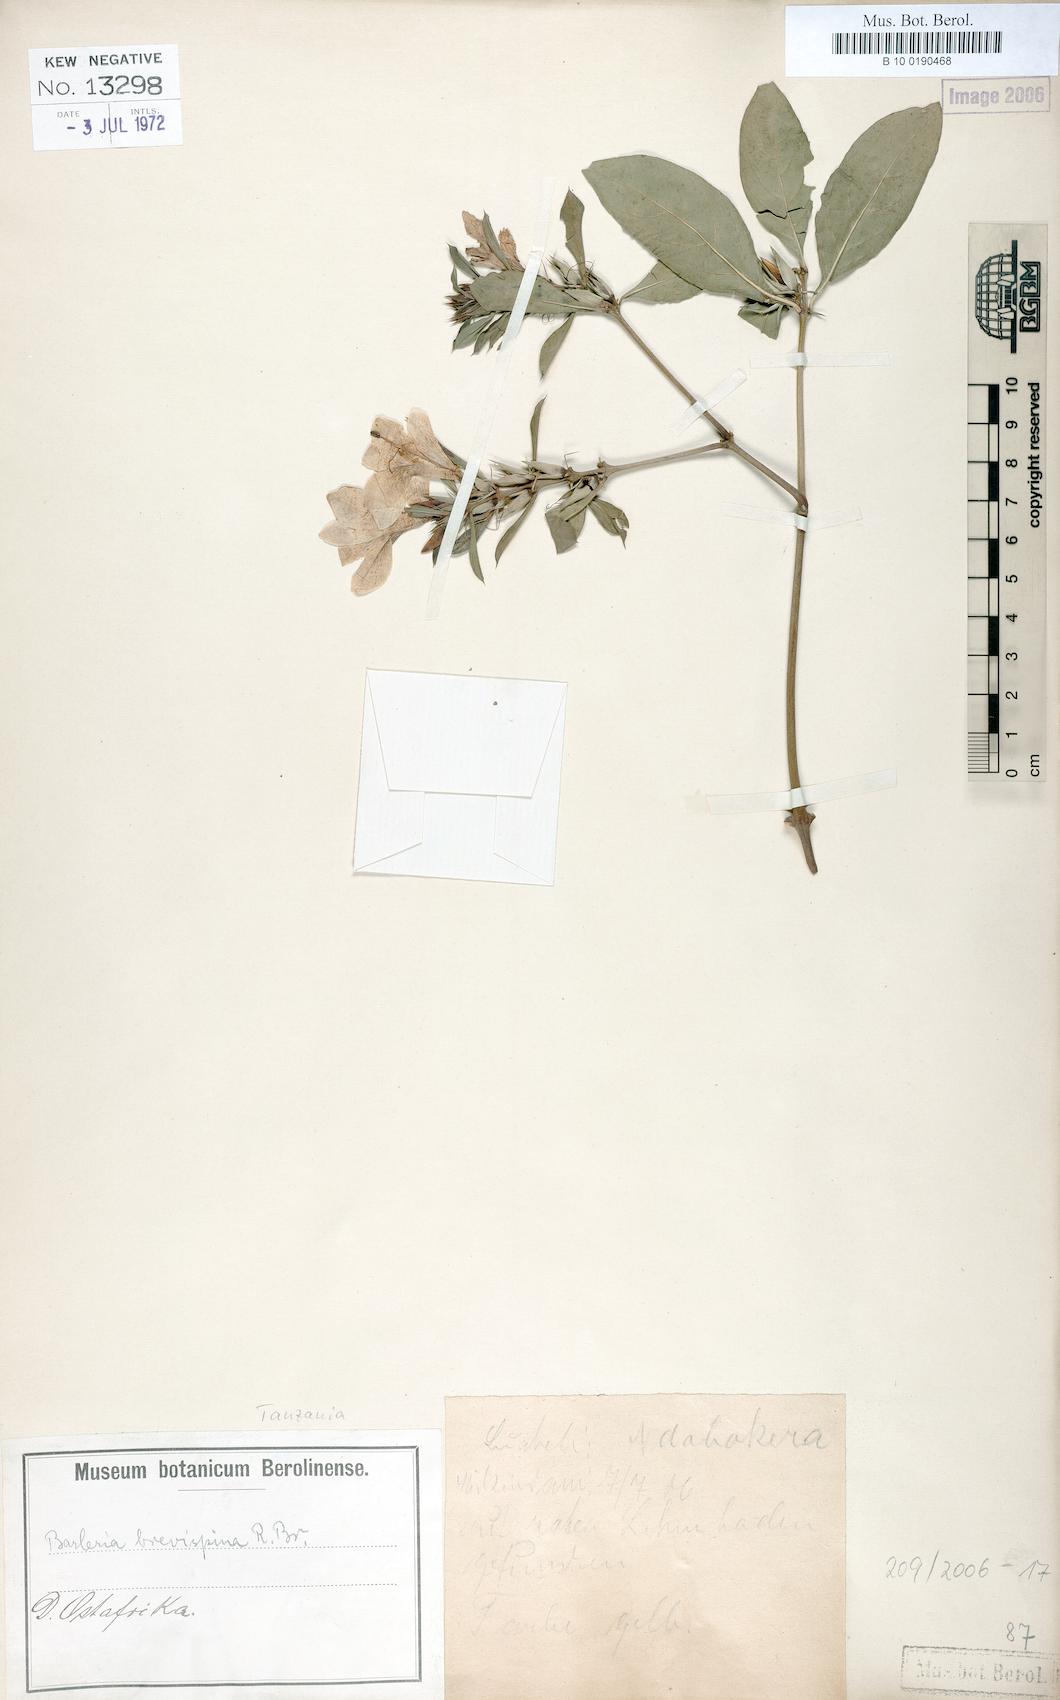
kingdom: Plantae
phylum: Tracheophyta
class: Magnoliopsida
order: Lamiales
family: Acanthaceae
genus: Barleria
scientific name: Barleria quadrispina
